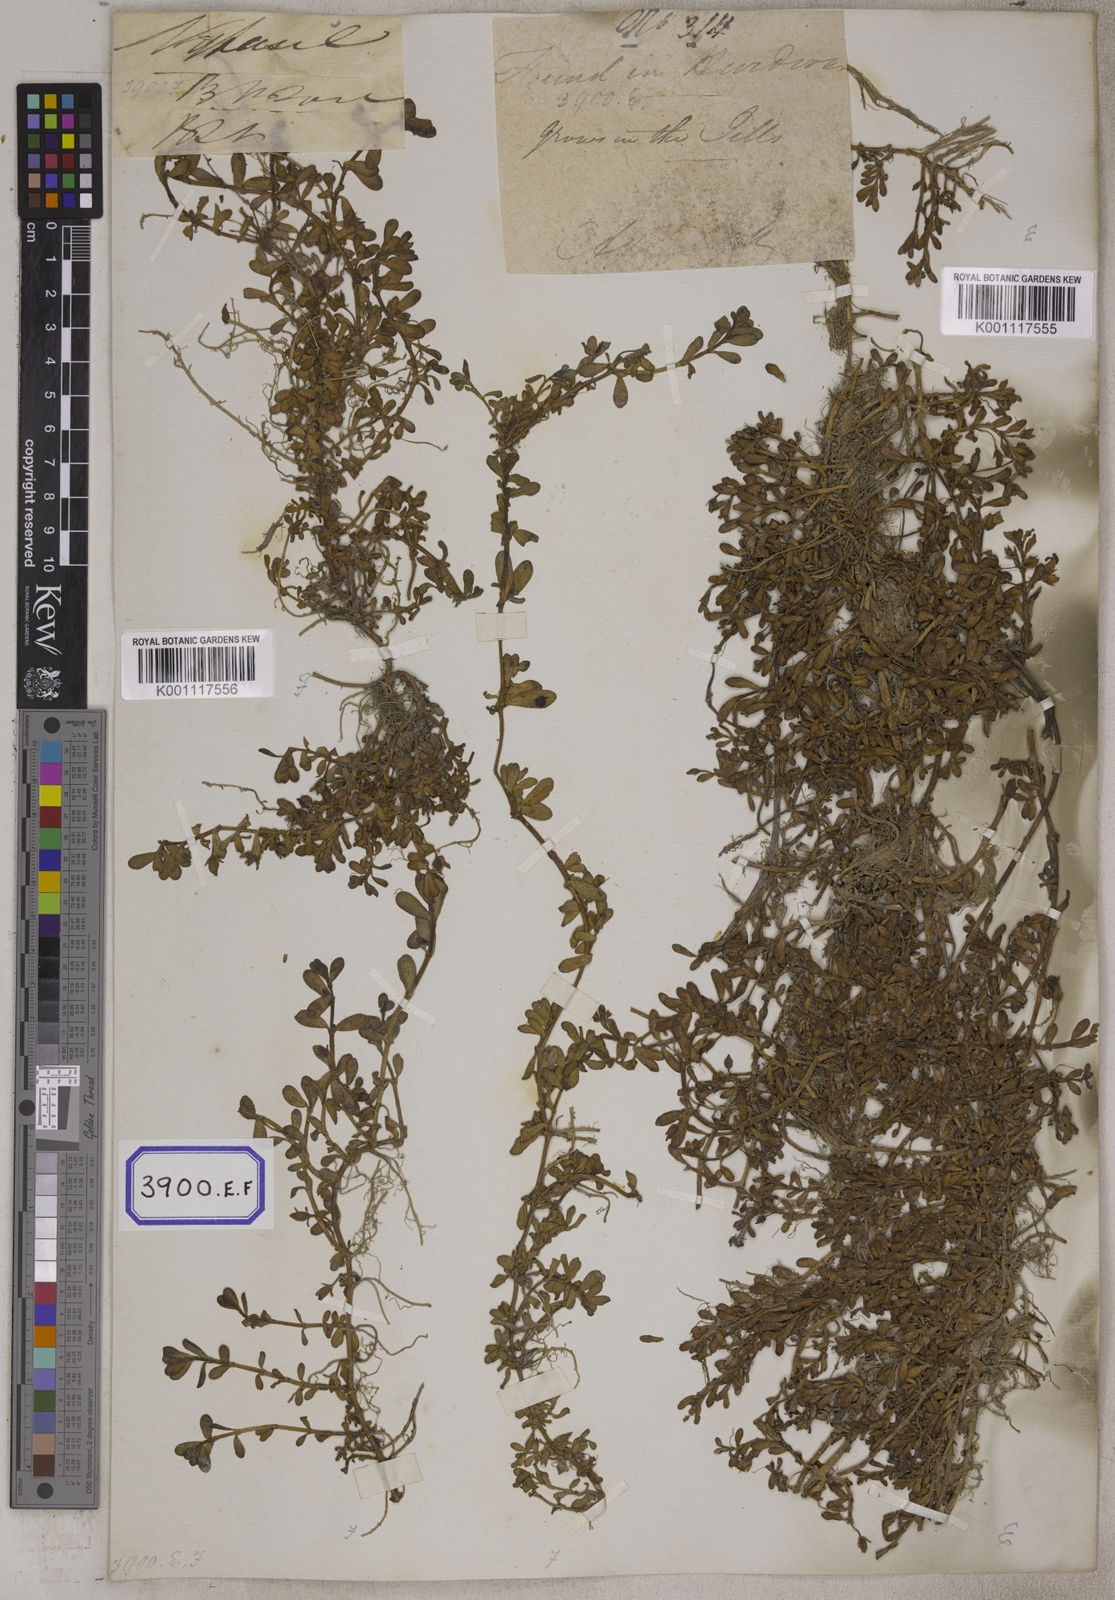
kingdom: Plantae
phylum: Tracheophyta
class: Magnoliopsida
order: Lamiales
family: Plantaginaceae
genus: Bacopa
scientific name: Bacopa monnieri
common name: Indian-pennywort
